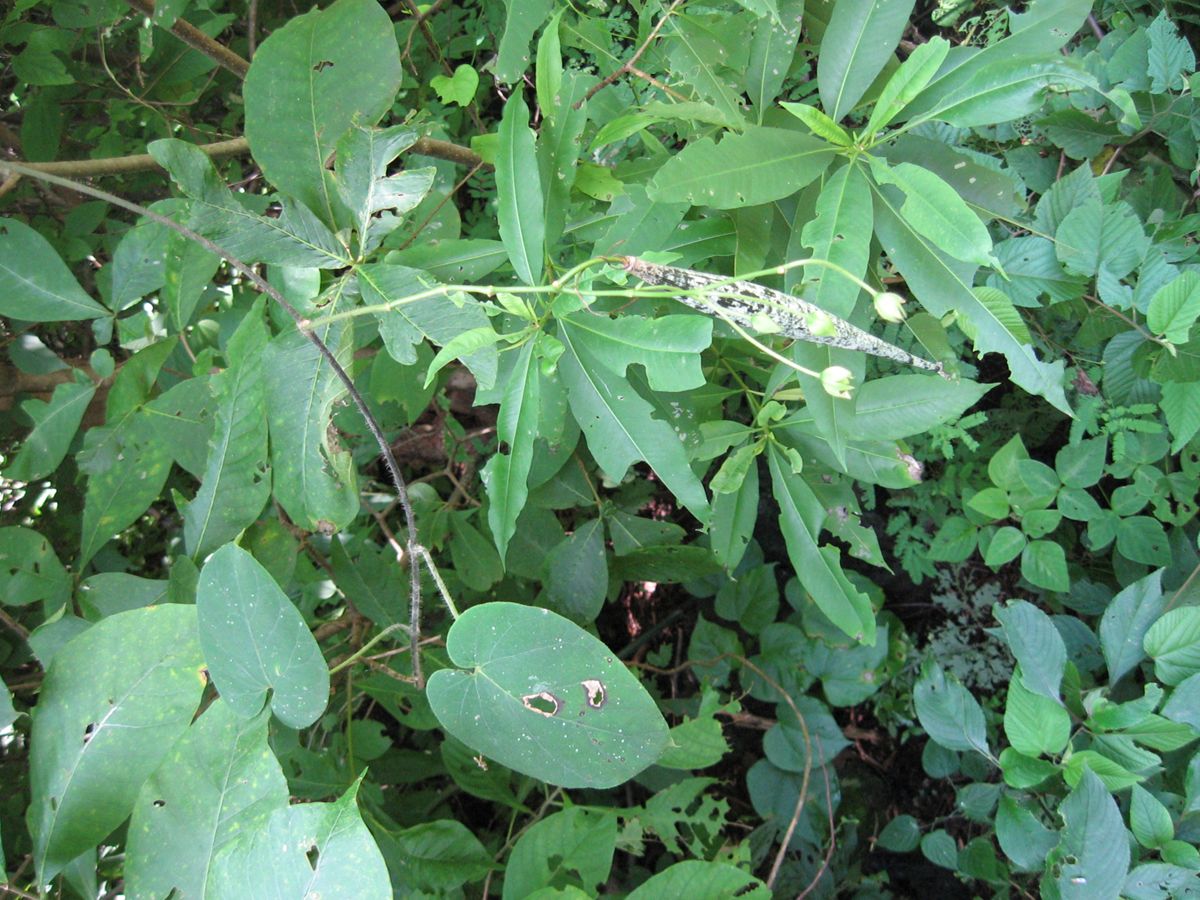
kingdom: Plantae
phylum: Tracheophyta
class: Magnoliopsida
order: Gentianales
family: Apocynaceae
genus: Polystemma
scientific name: Polystemma guatemalense
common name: Arborescente rattan
